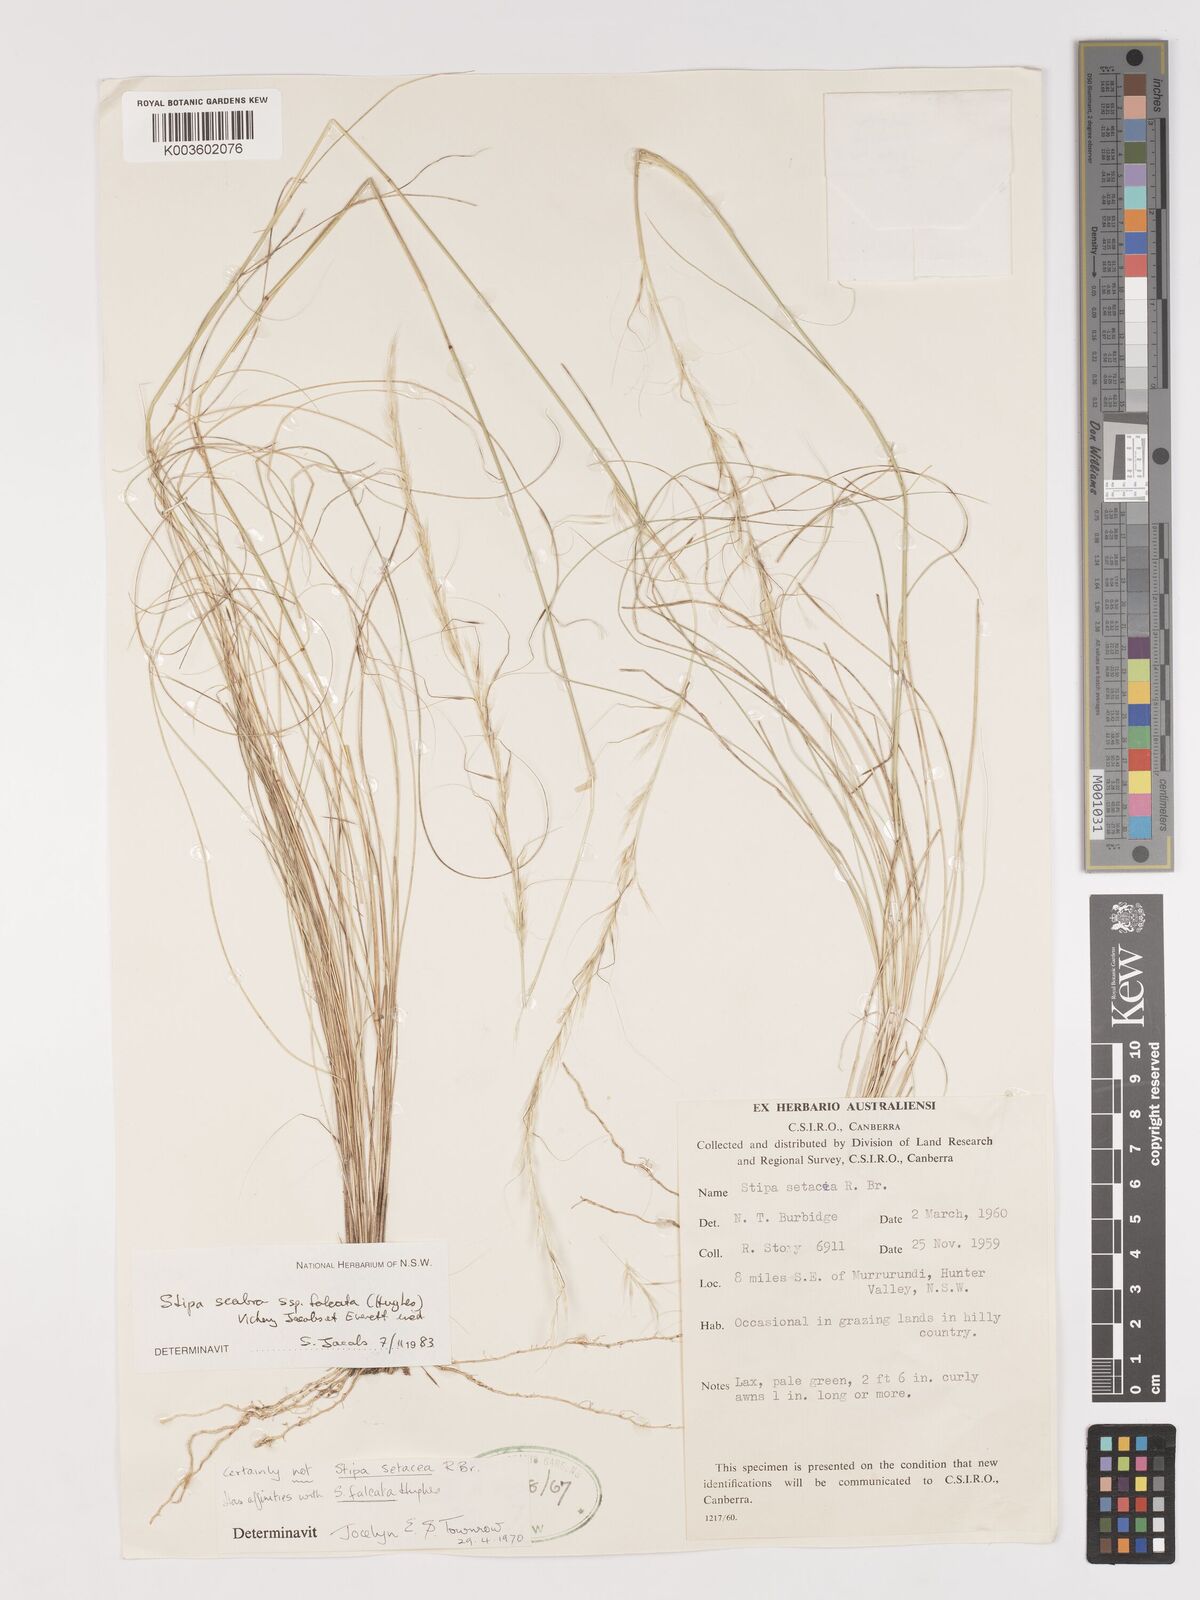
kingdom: Plantae
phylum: Tracheophyta
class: Liliopsida
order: Poales
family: Poaceae
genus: Austrostipa
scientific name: Austrostipa scabra
